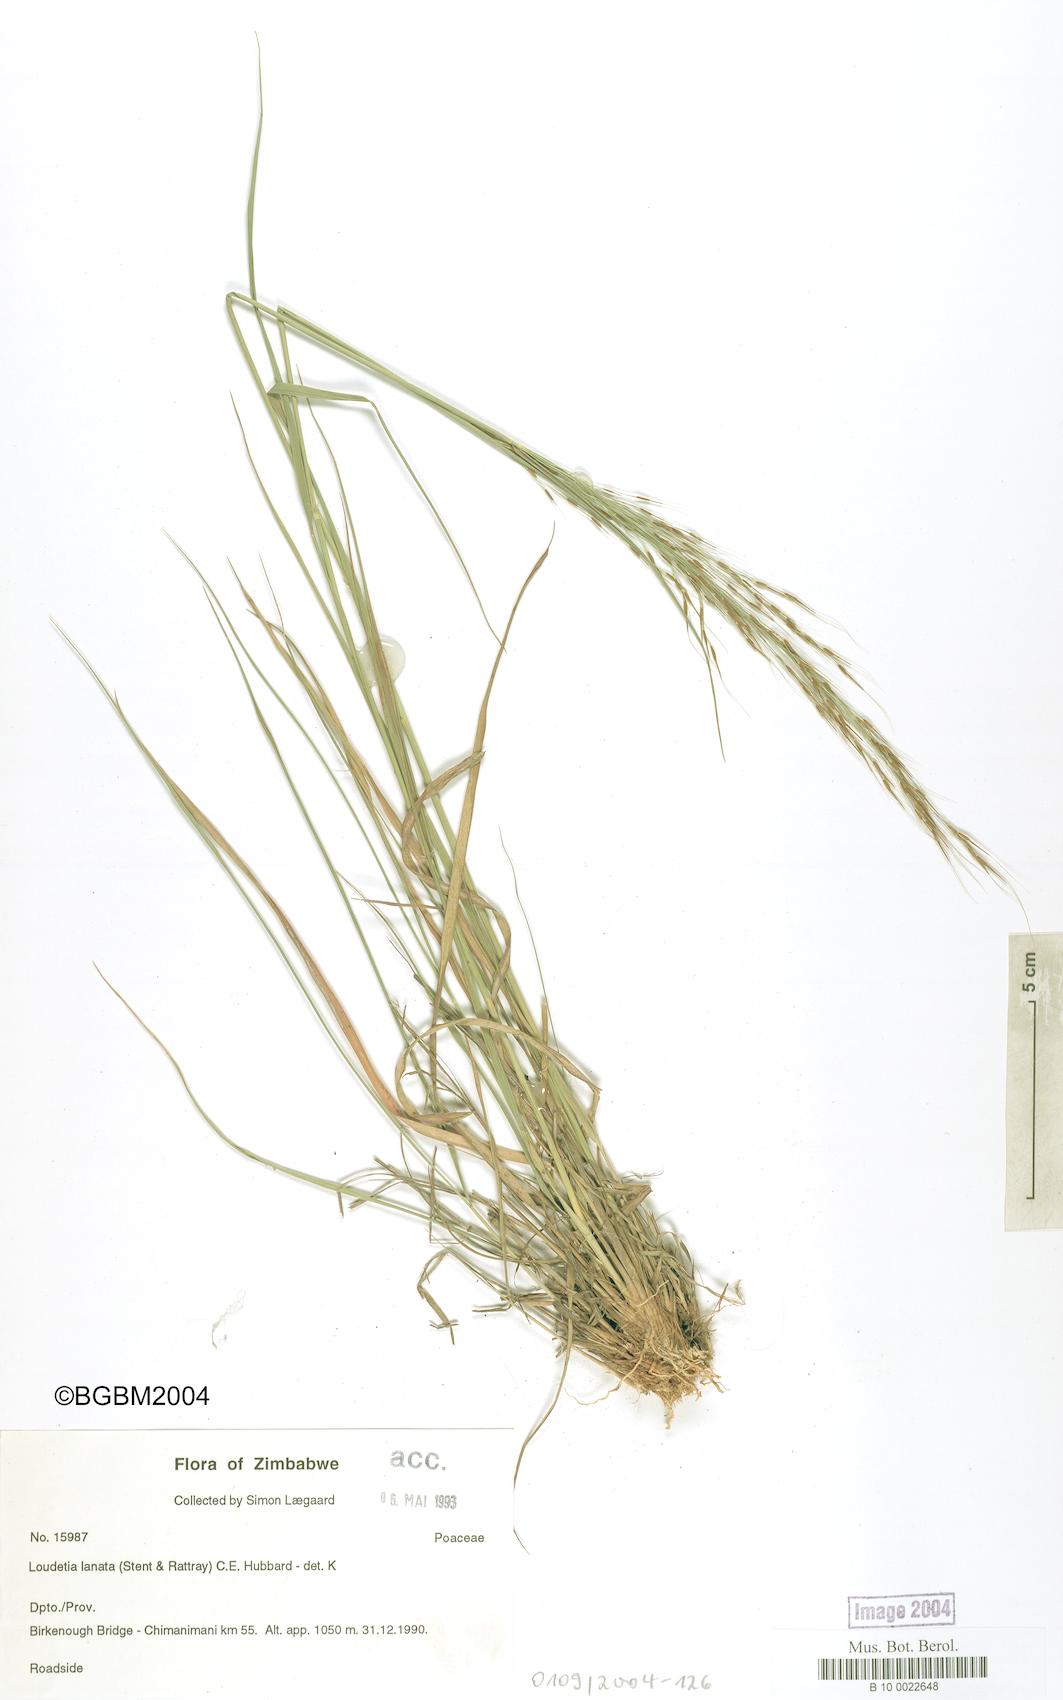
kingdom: Plantae
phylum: Tracheophyta
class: Liliopsida
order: Poales
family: Poaceae
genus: Loudetia
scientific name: Loudetia lanata
